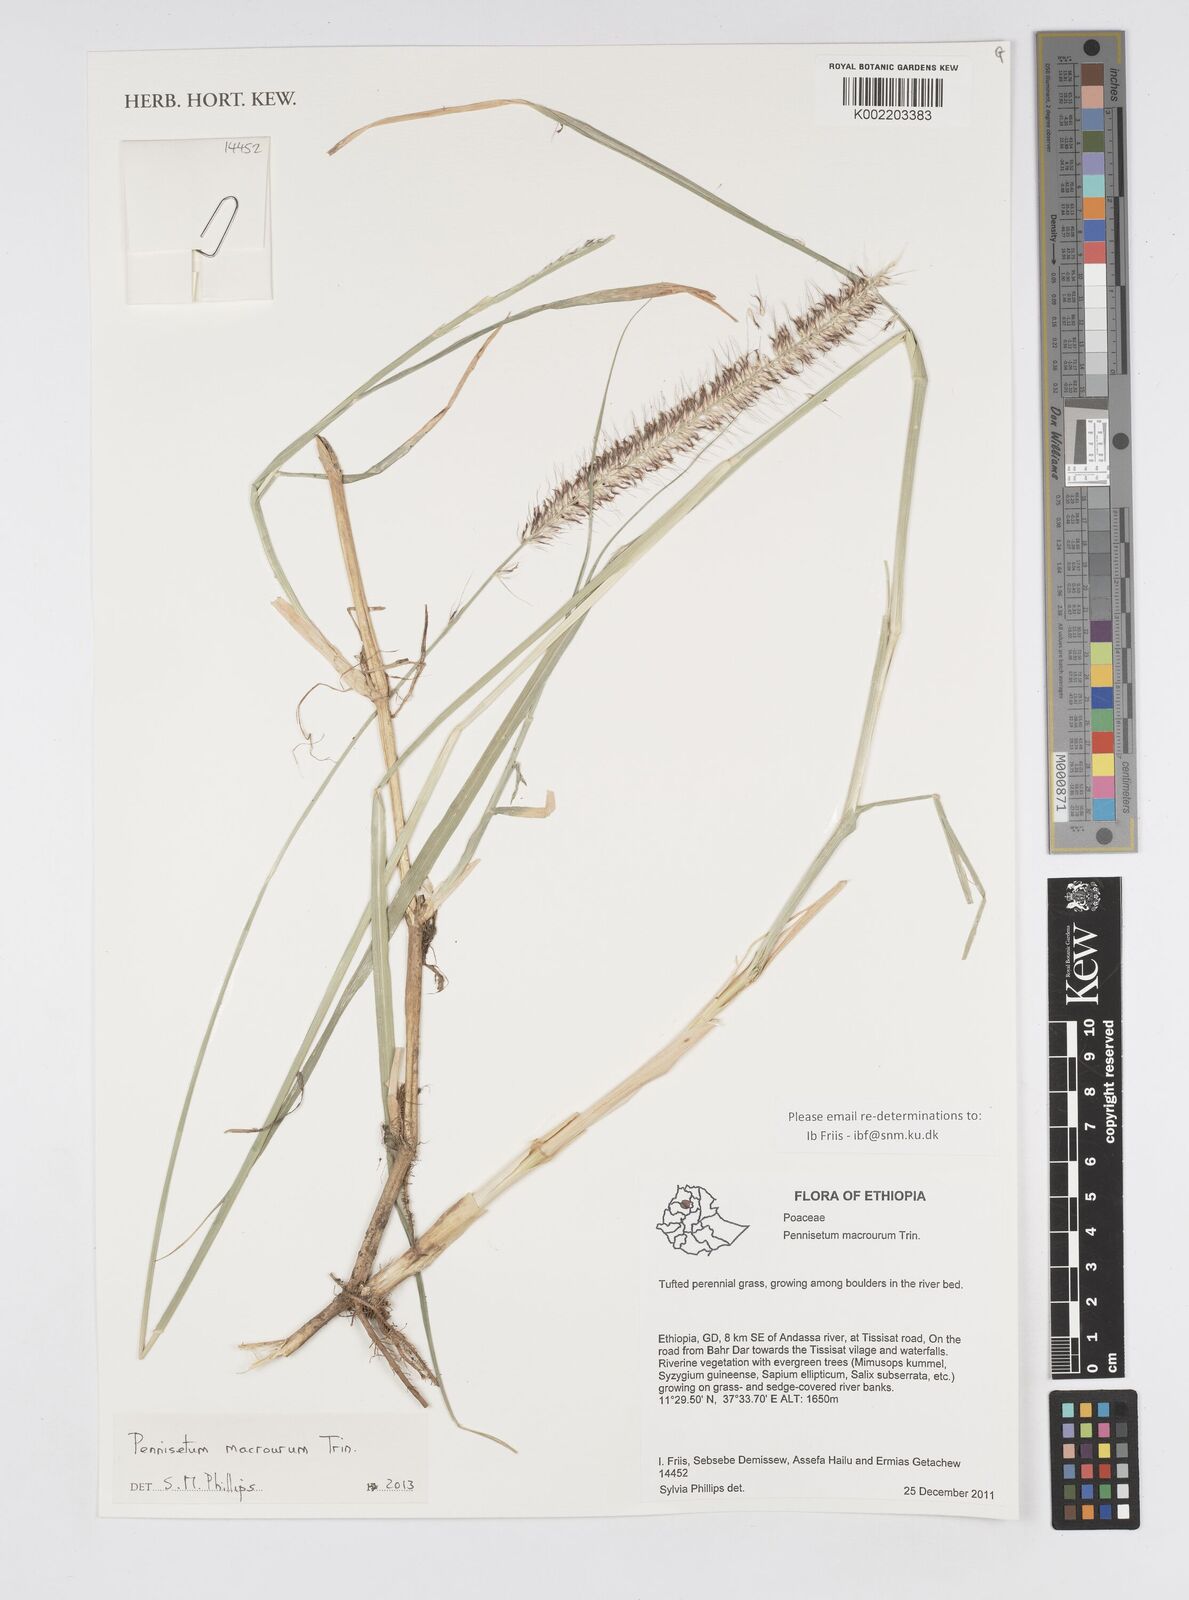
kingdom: Plantae
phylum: Tracheophyta
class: Liliopsida
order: Poales
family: Poaceae
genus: Cenchrus
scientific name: Cenchrus caudatus
